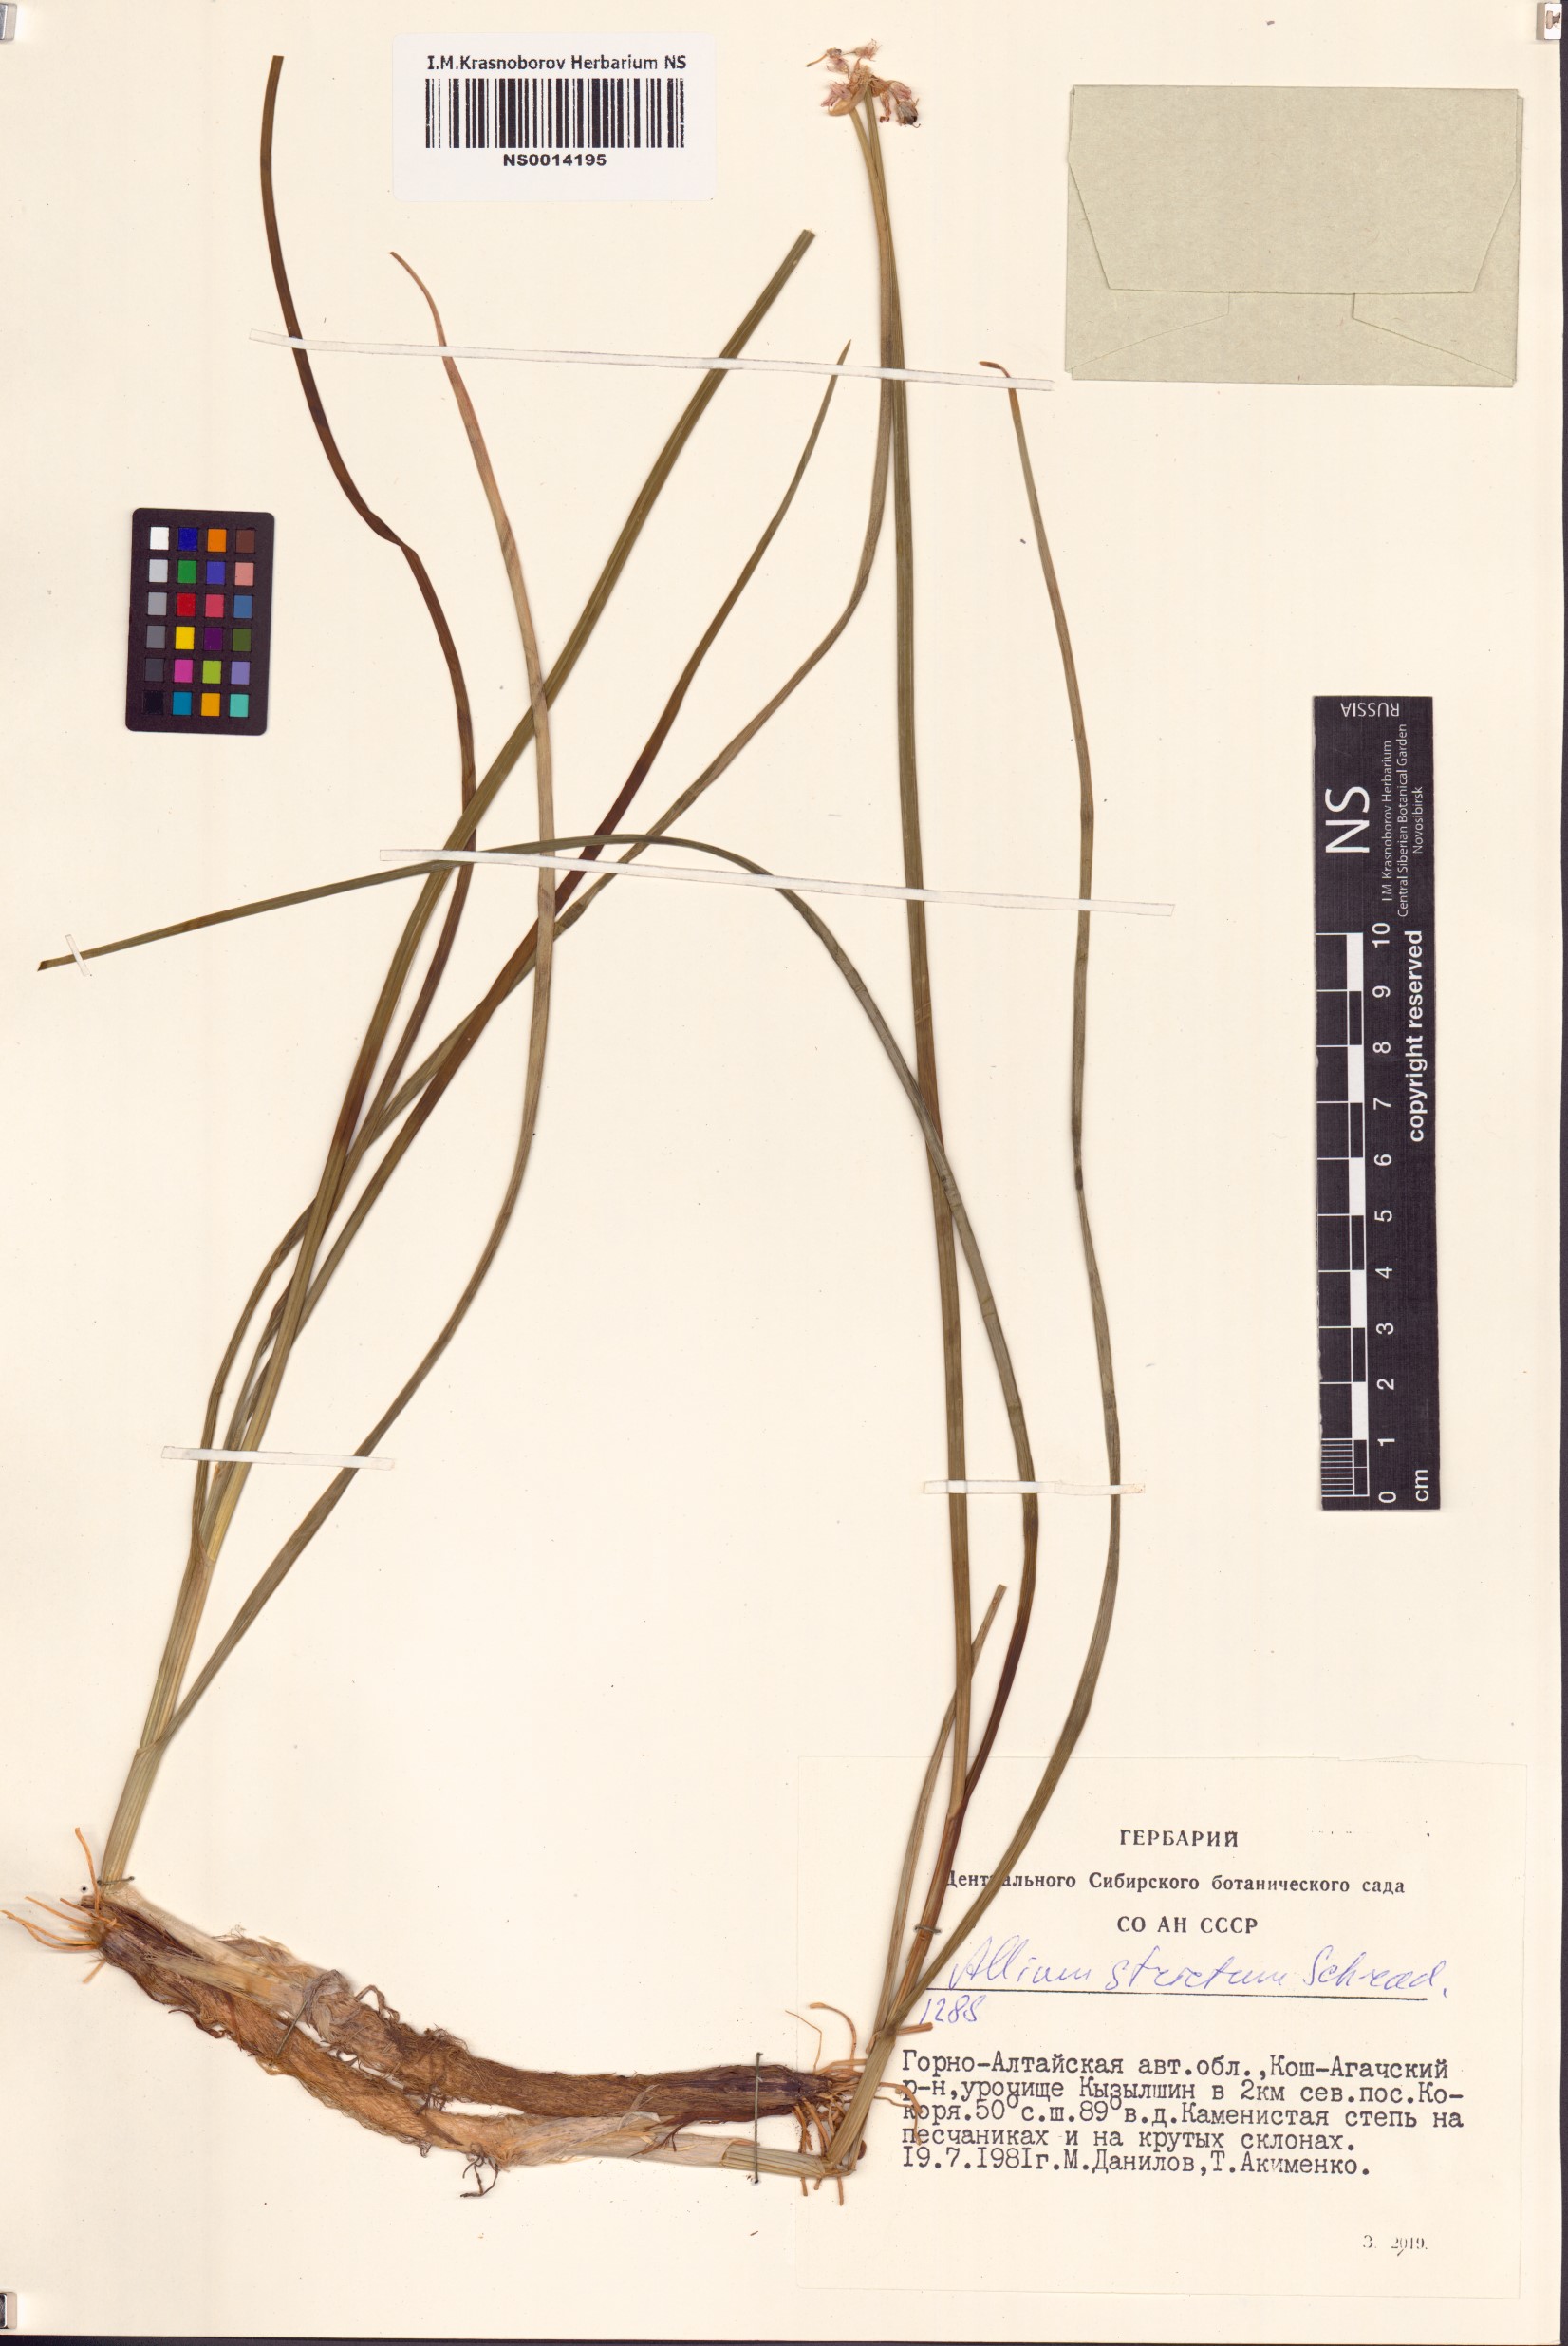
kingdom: Plantae
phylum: Tracheophyta
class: Liliopsida
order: Asparagales
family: Amaryllidaceae
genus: Allium
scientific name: Allium strictum
